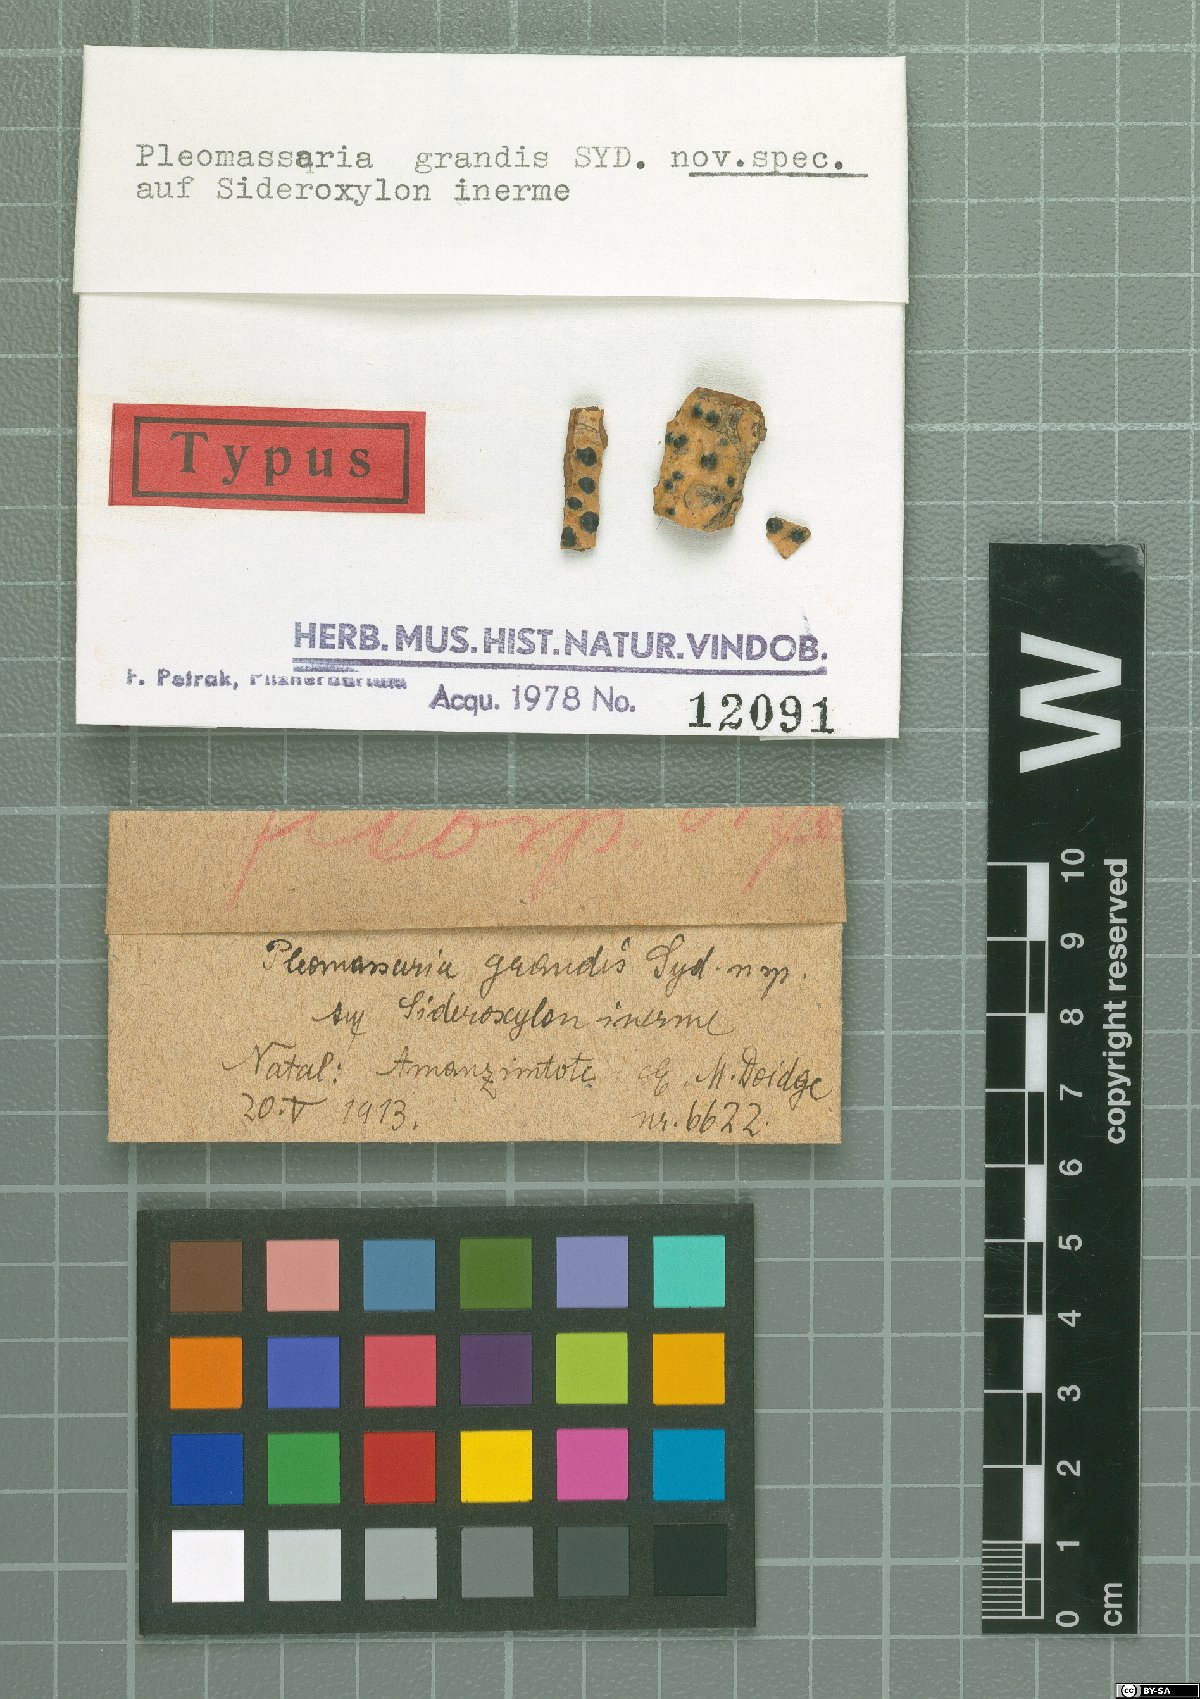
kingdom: Fungi
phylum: Ascomycota
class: Dothideomycetes
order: Pleosporales
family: Pleomassariaceae
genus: Pleomassaria
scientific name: Pleomassaria
